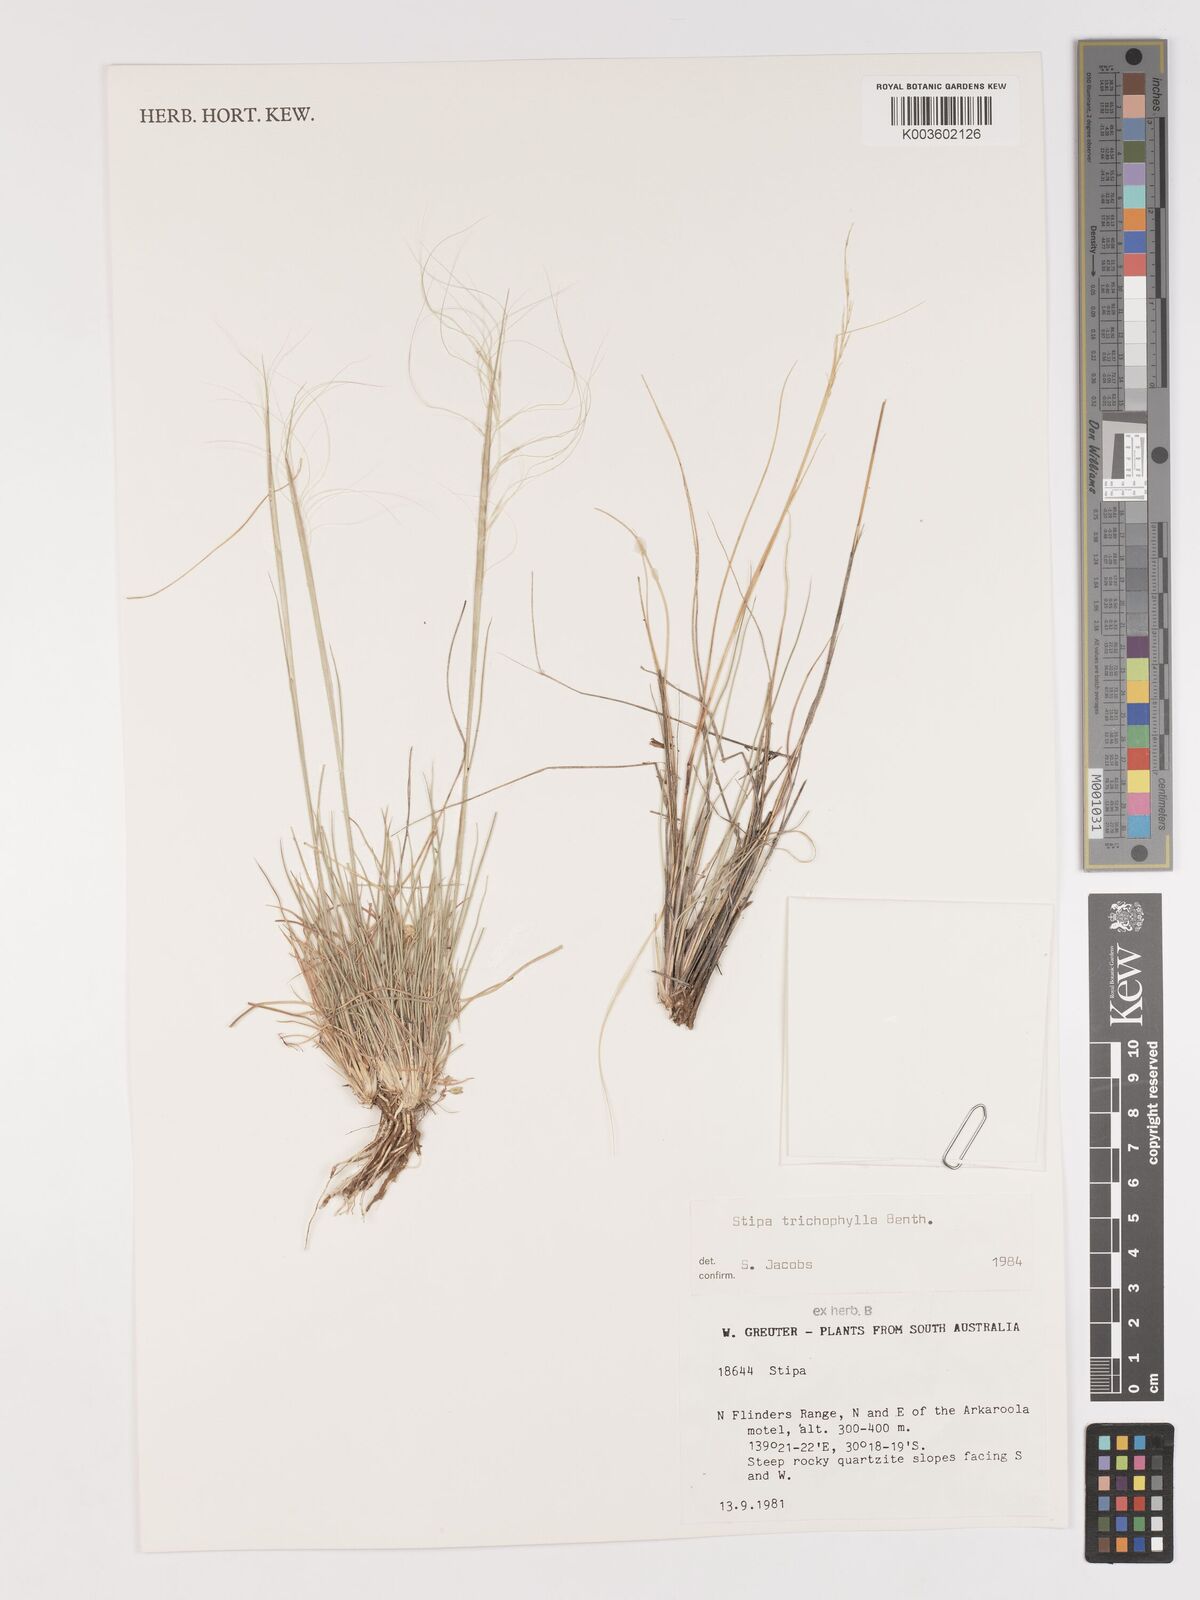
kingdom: Plantae
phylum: Tracheophyta
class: Liliopsida
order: Poales
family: Poaceae
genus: Austrostipa
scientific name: Austrostipa trichophylla
